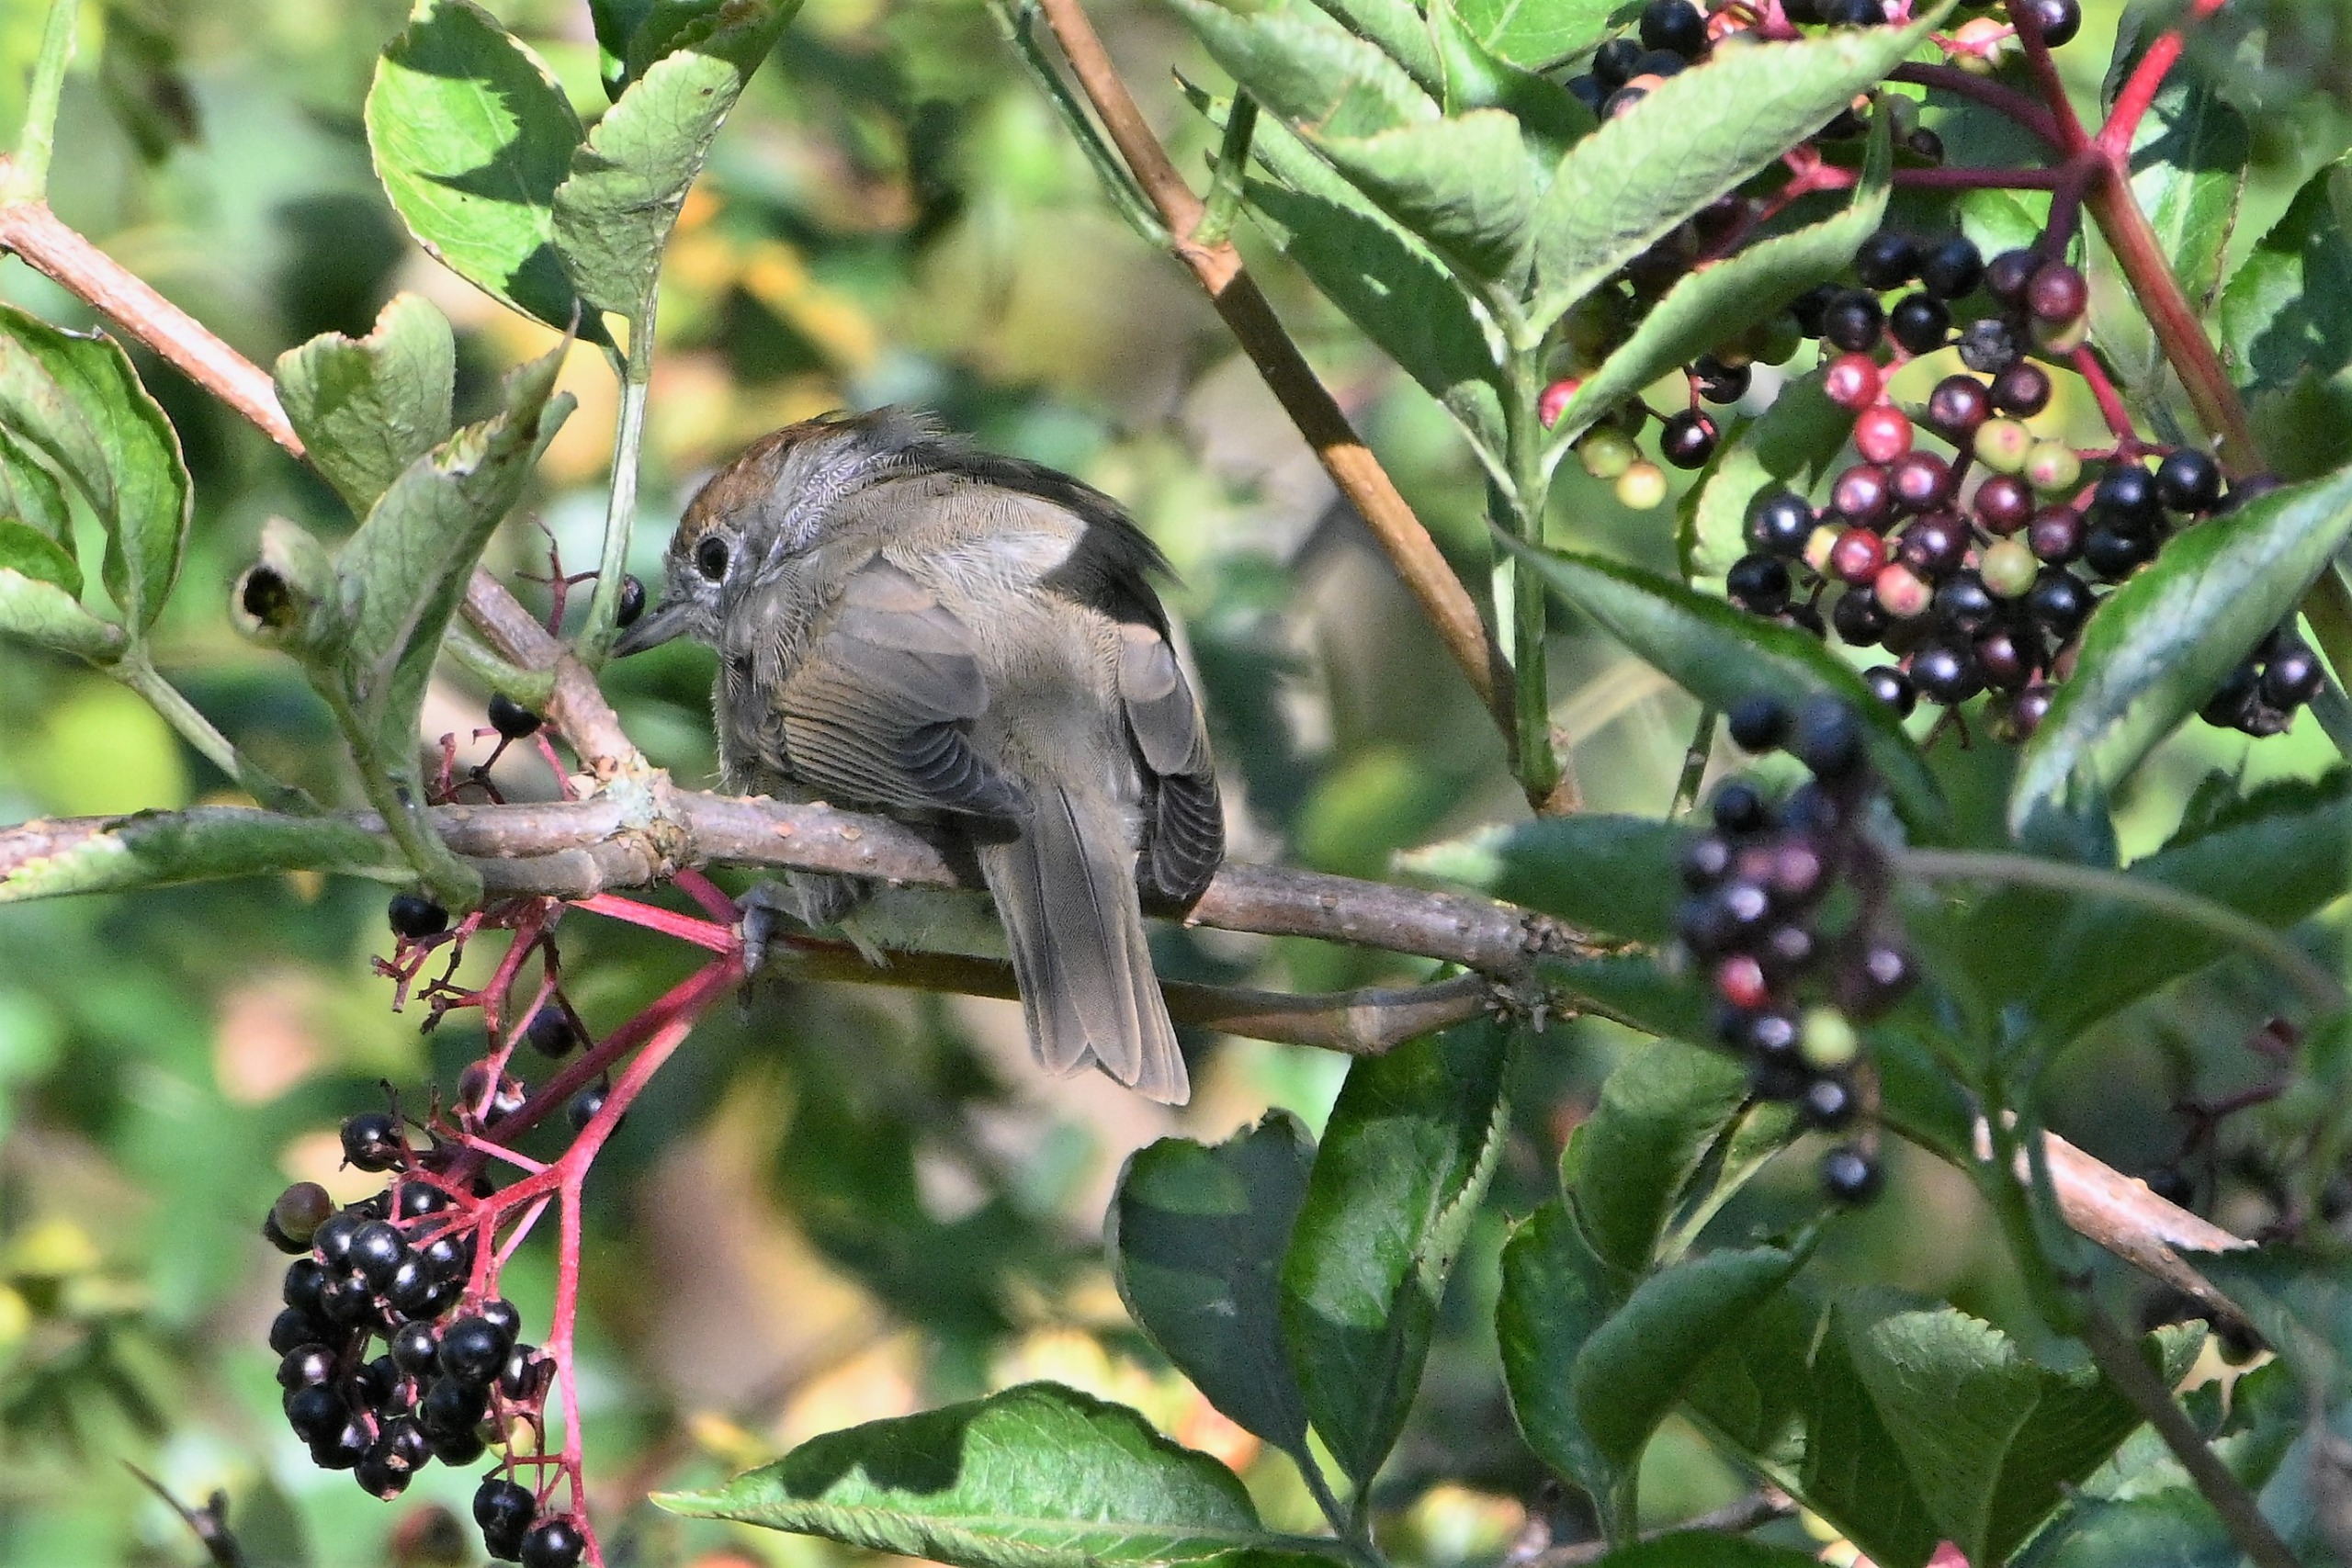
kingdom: Animalia
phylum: Chordata
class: Aves
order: Passeriformes
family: Sylviidae
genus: Sylvia
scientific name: Sylvia atricapilla
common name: Munk
